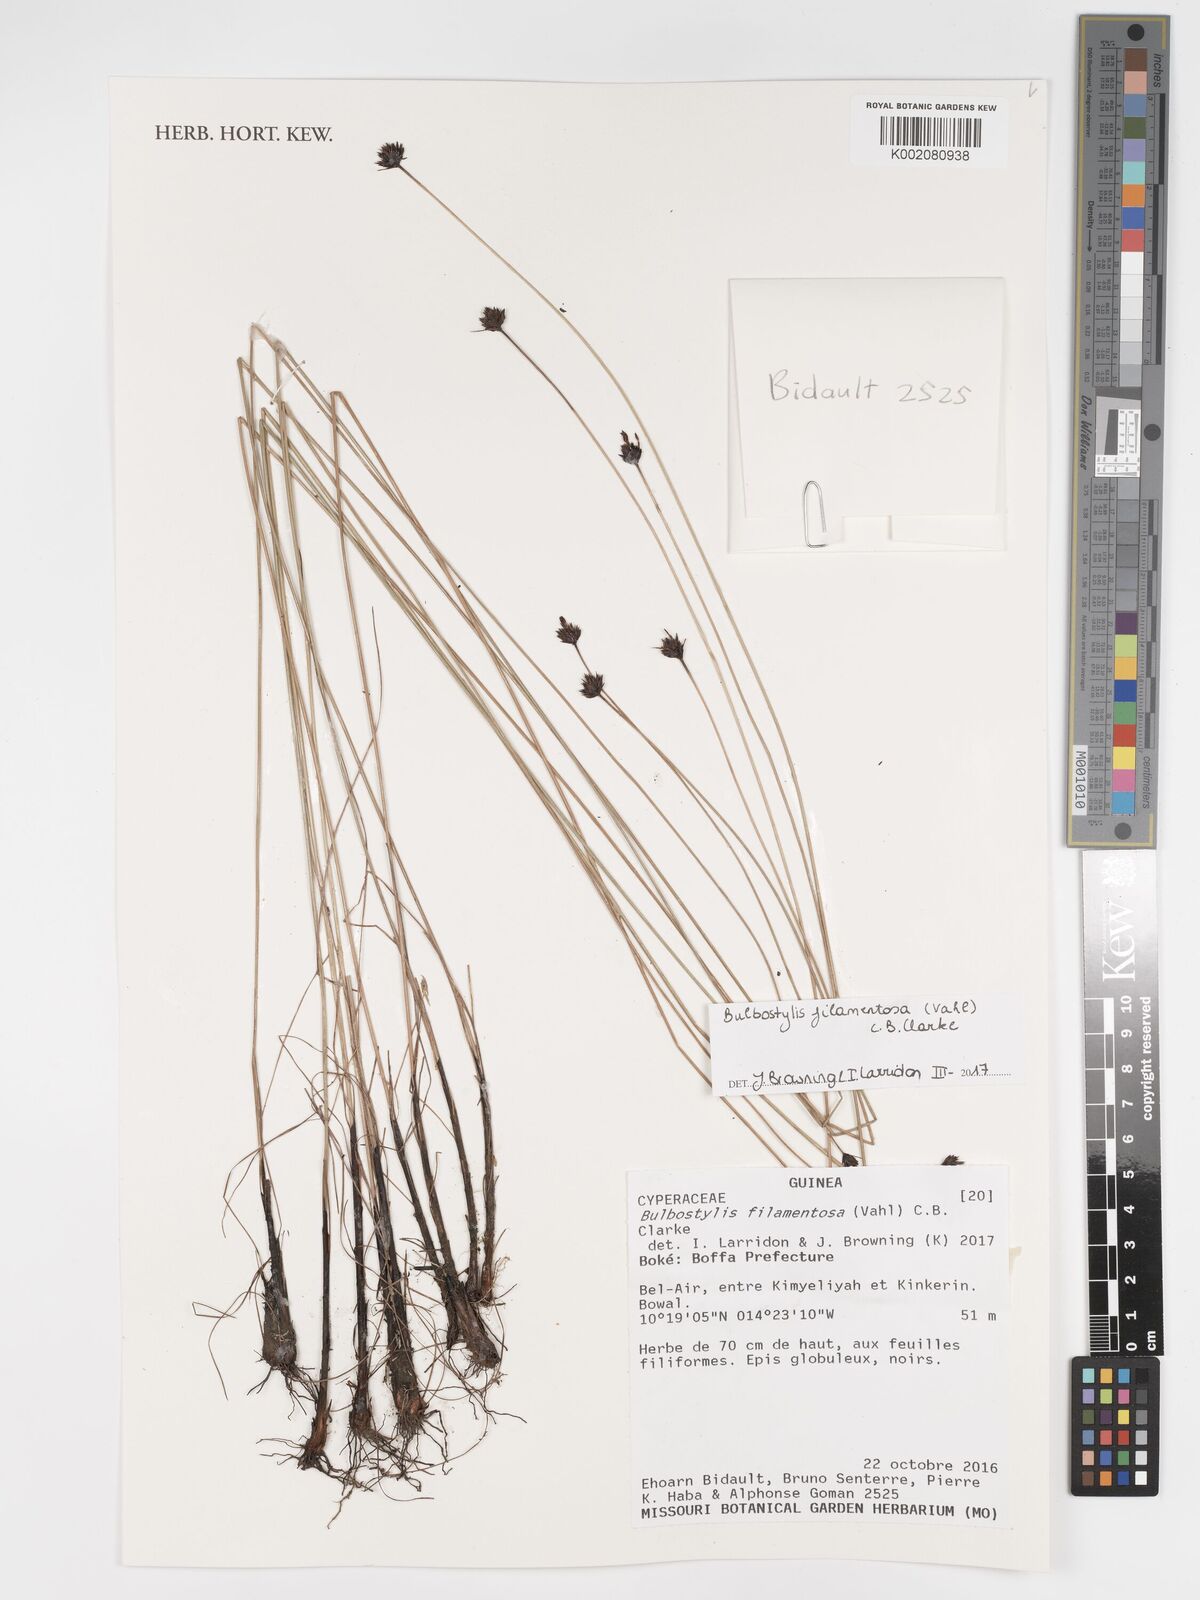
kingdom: Plantae
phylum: Tracheophyta
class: Liliopsida
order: Poales
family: Cyperaceae
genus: Bulbostylis
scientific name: Bulbostylis filamentosa
